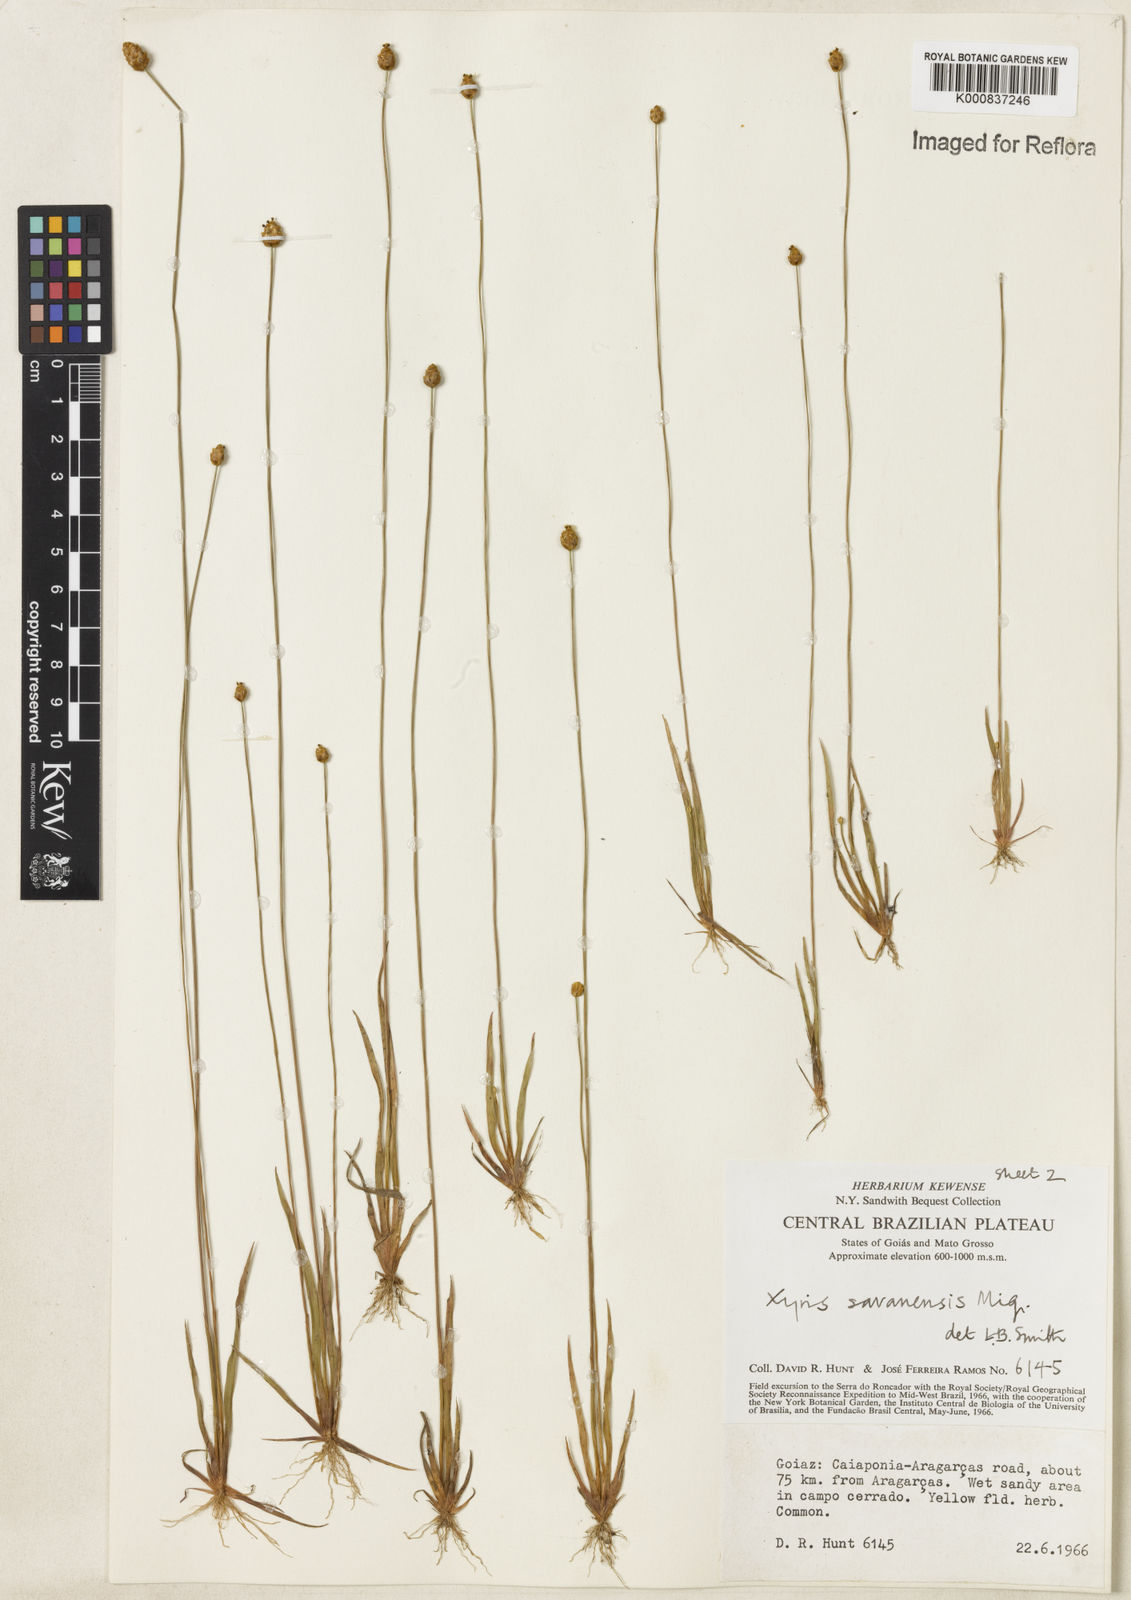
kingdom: Plantae
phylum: Tracheophyta
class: Liliopsida
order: Poales
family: Xyridaceae
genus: Xyris
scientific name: Xyris savanensis
